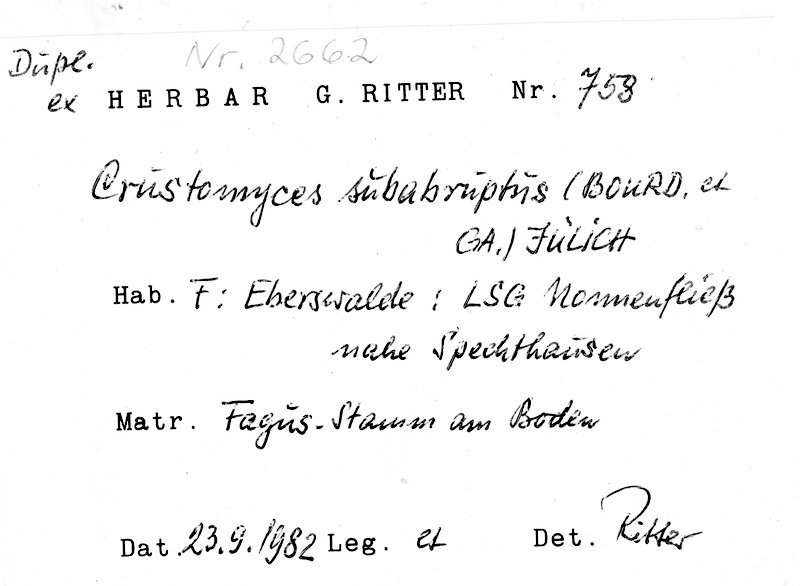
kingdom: Plantae
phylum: Tracheophyta
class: Magnoliopsida
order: Fagales
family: Fagaceae
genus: Fagus
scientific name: Fagus sylvatica
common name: Beech
